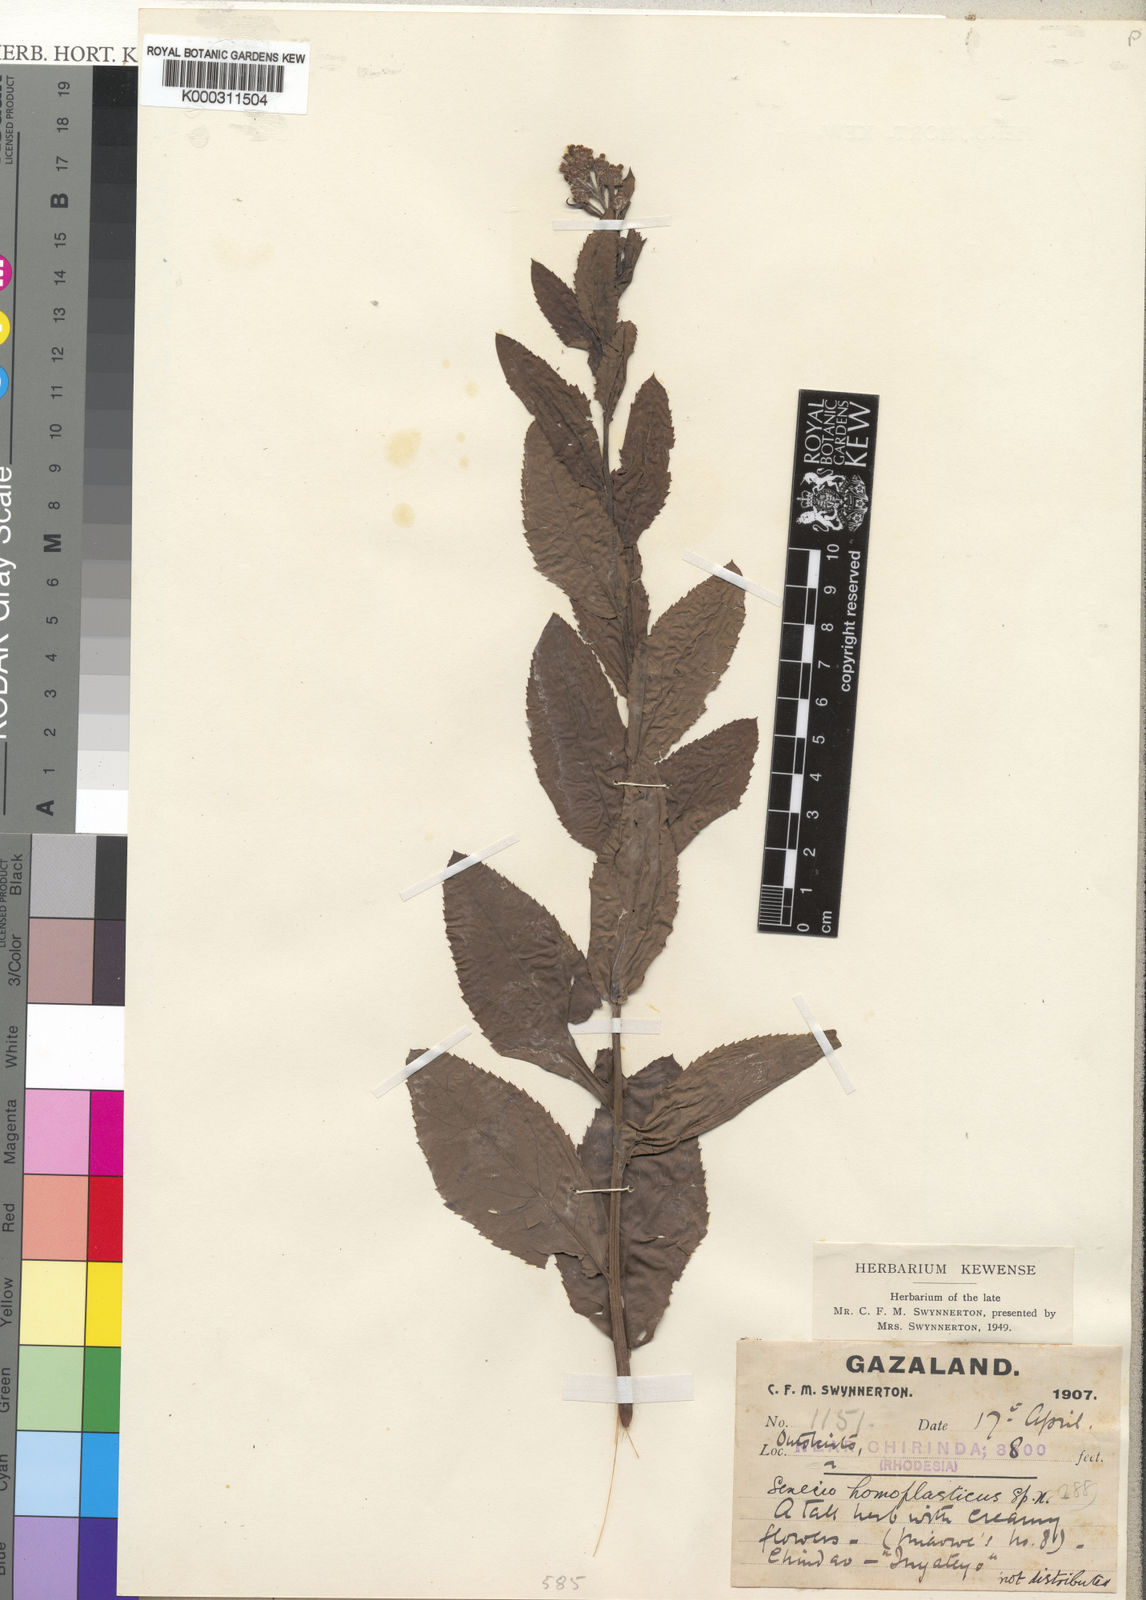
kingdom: Plantae
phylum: Tracheophyta
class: Magnoliopsida
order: Asterales
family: Asteraceae
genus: Senecio
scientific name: Senecio triactinus
